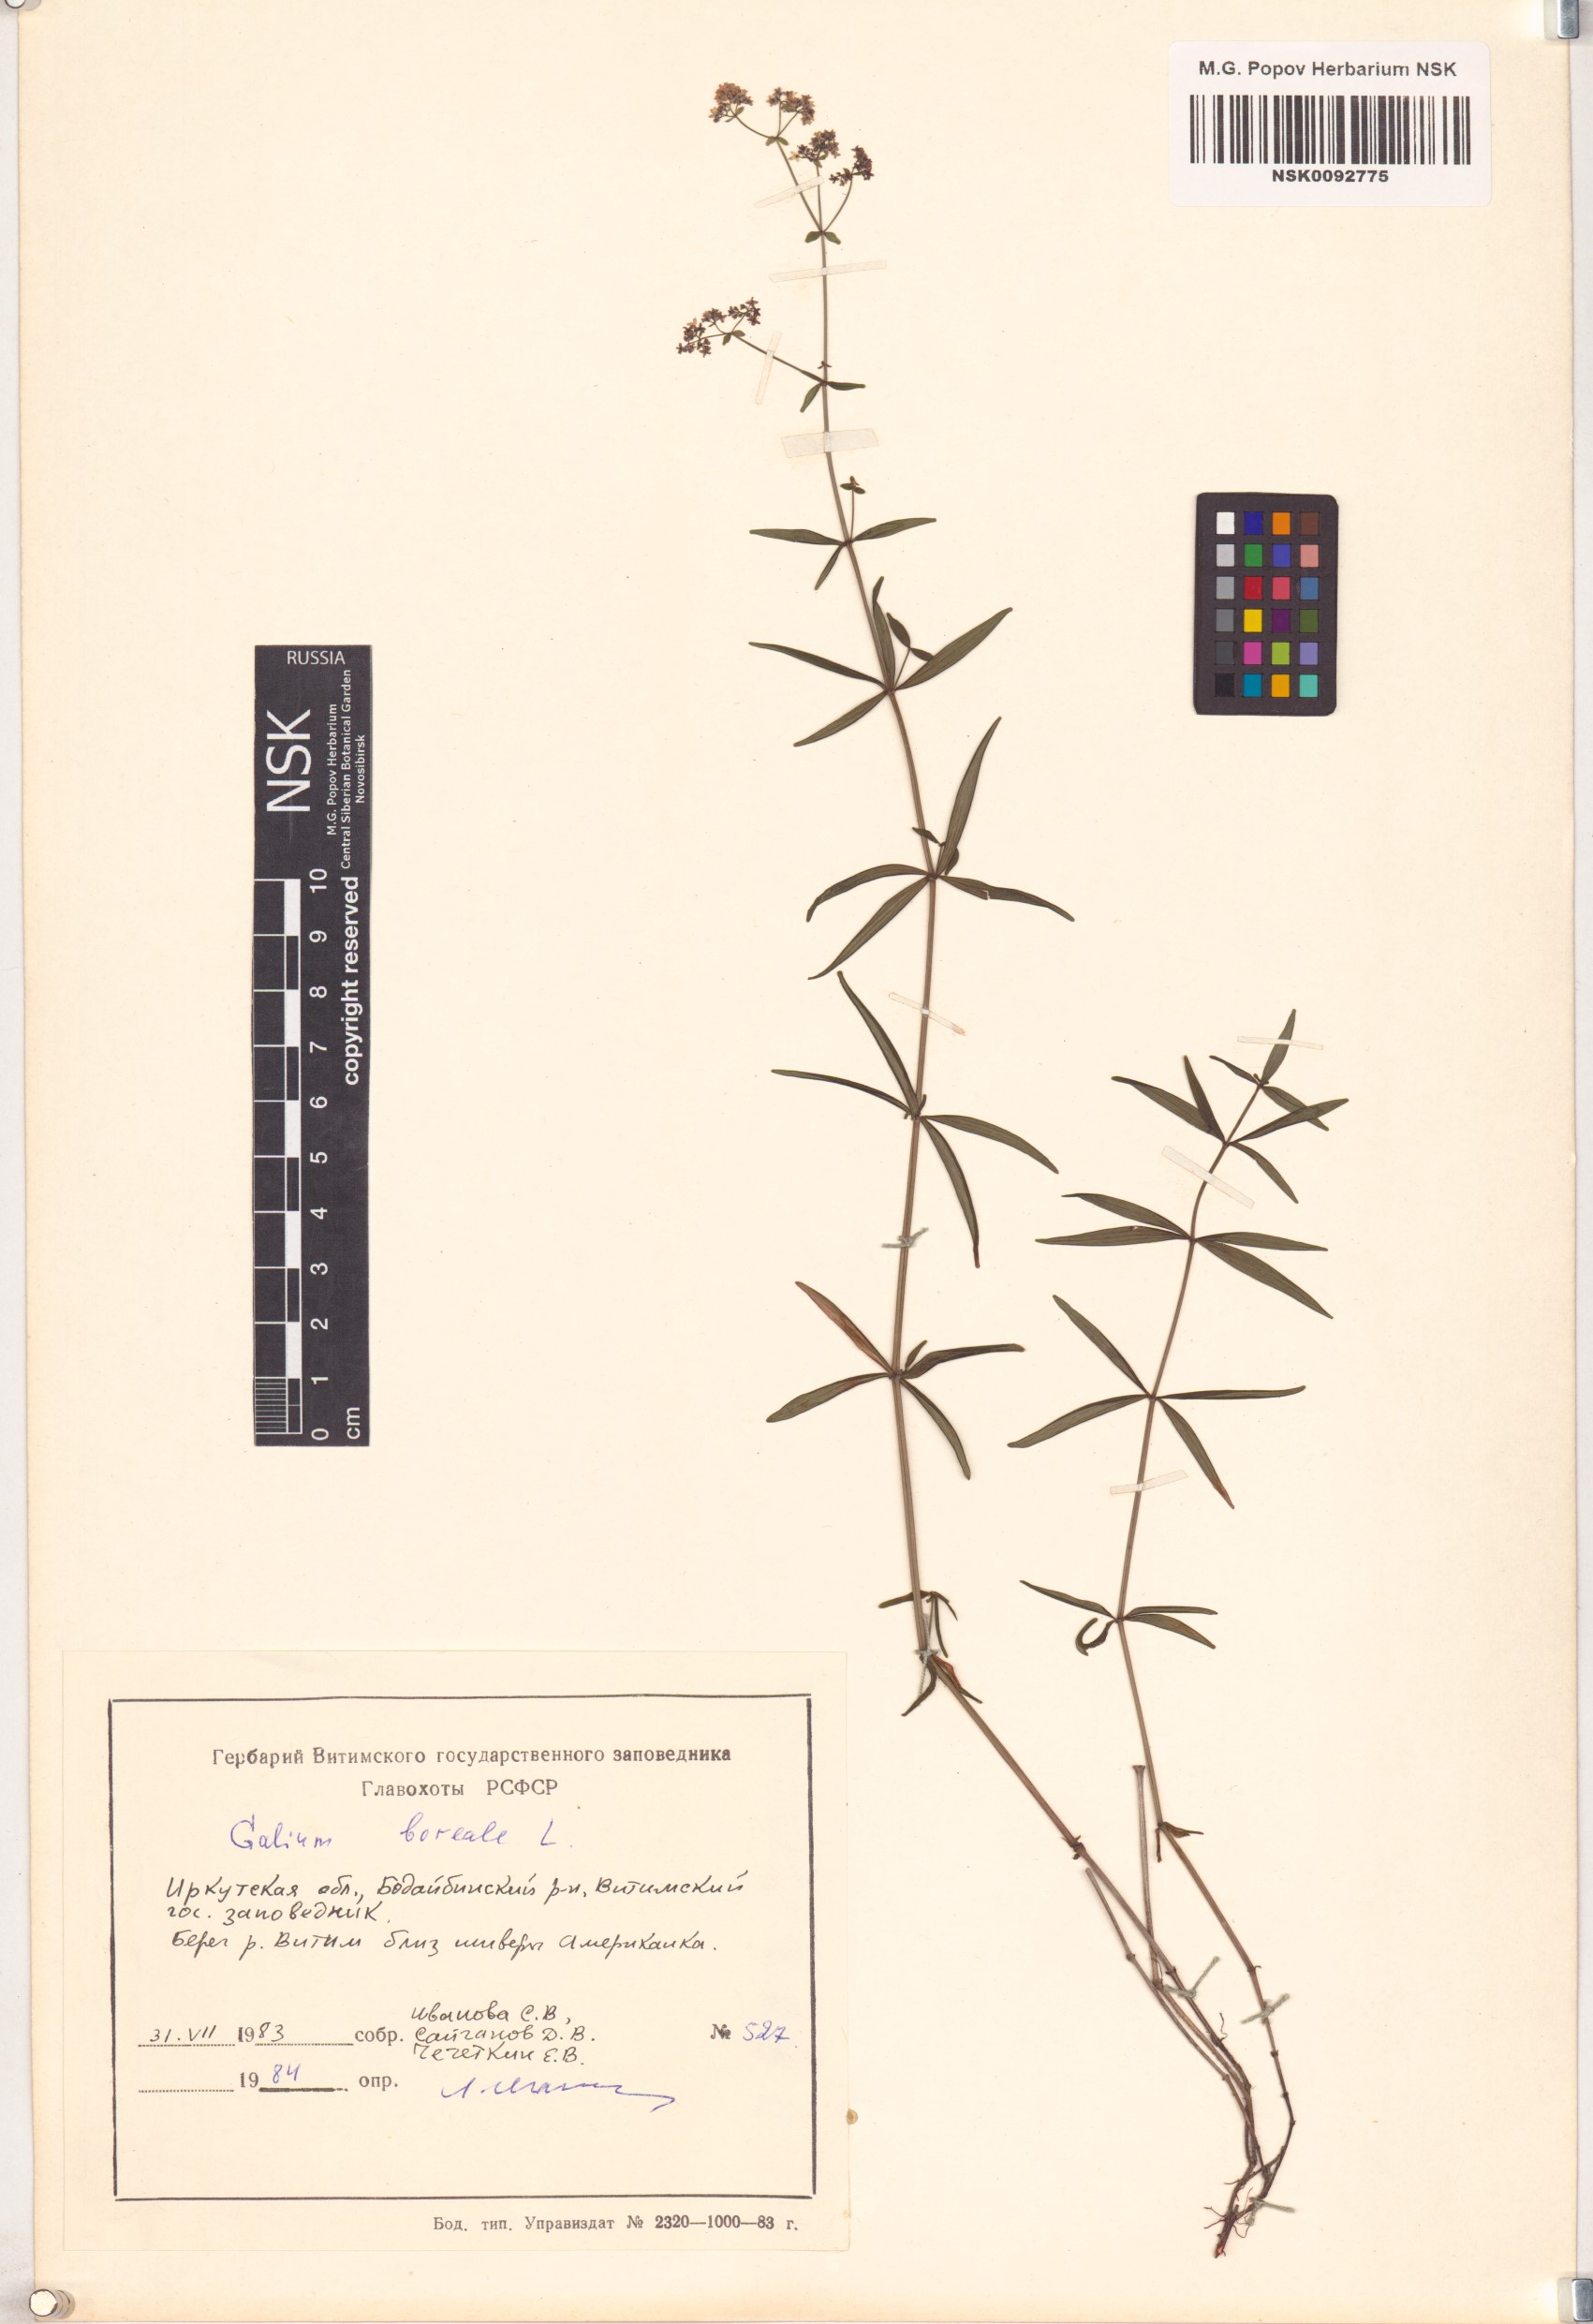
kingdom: Plantae
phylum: Tracheophyta
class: Magnoliopsida
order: Gentianales
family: Rubiaceae
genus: Galium
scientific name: Galium boreale
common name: Northern bedstraw
